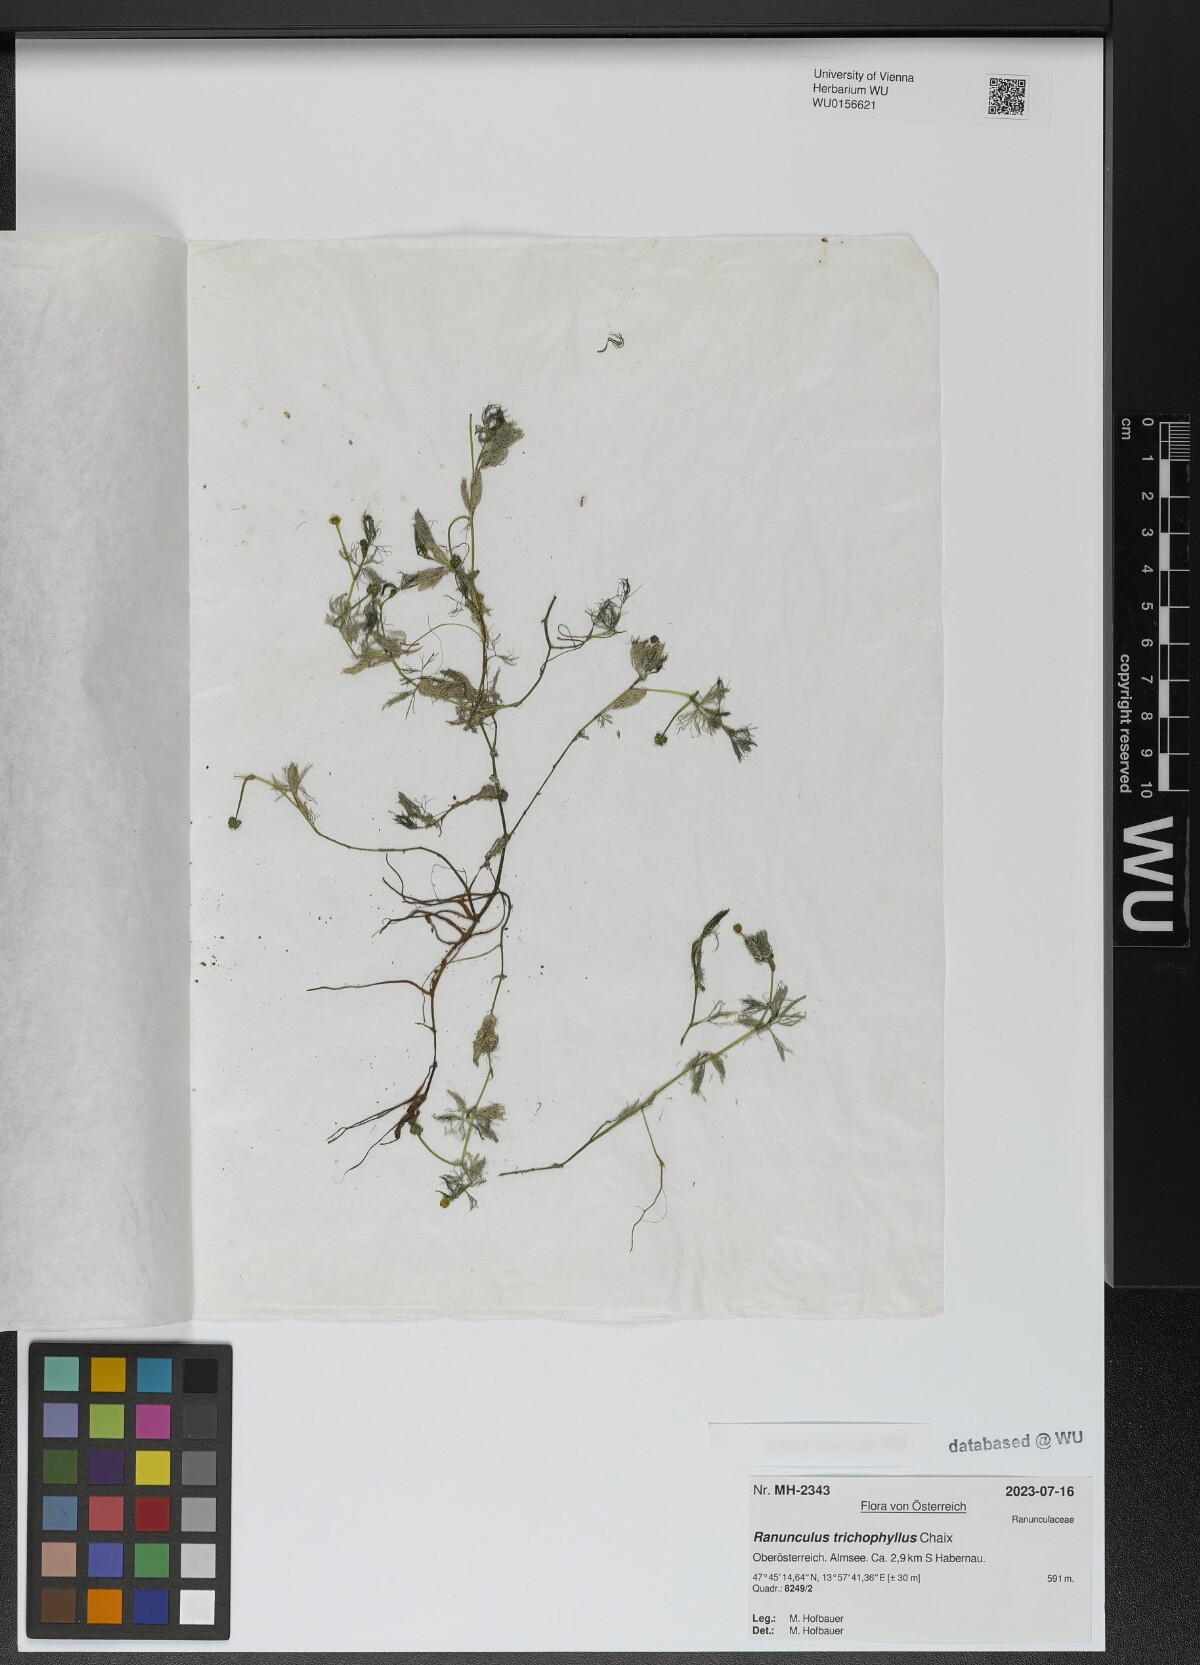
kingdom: Plantae
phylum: Tracheophyta
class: Magnoliopsida
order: Ranunculales
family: Ranunculaceae
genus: Ranunculus
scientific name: Ranunculus trichophyllus
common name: Thread-leaved water-crowfoot
